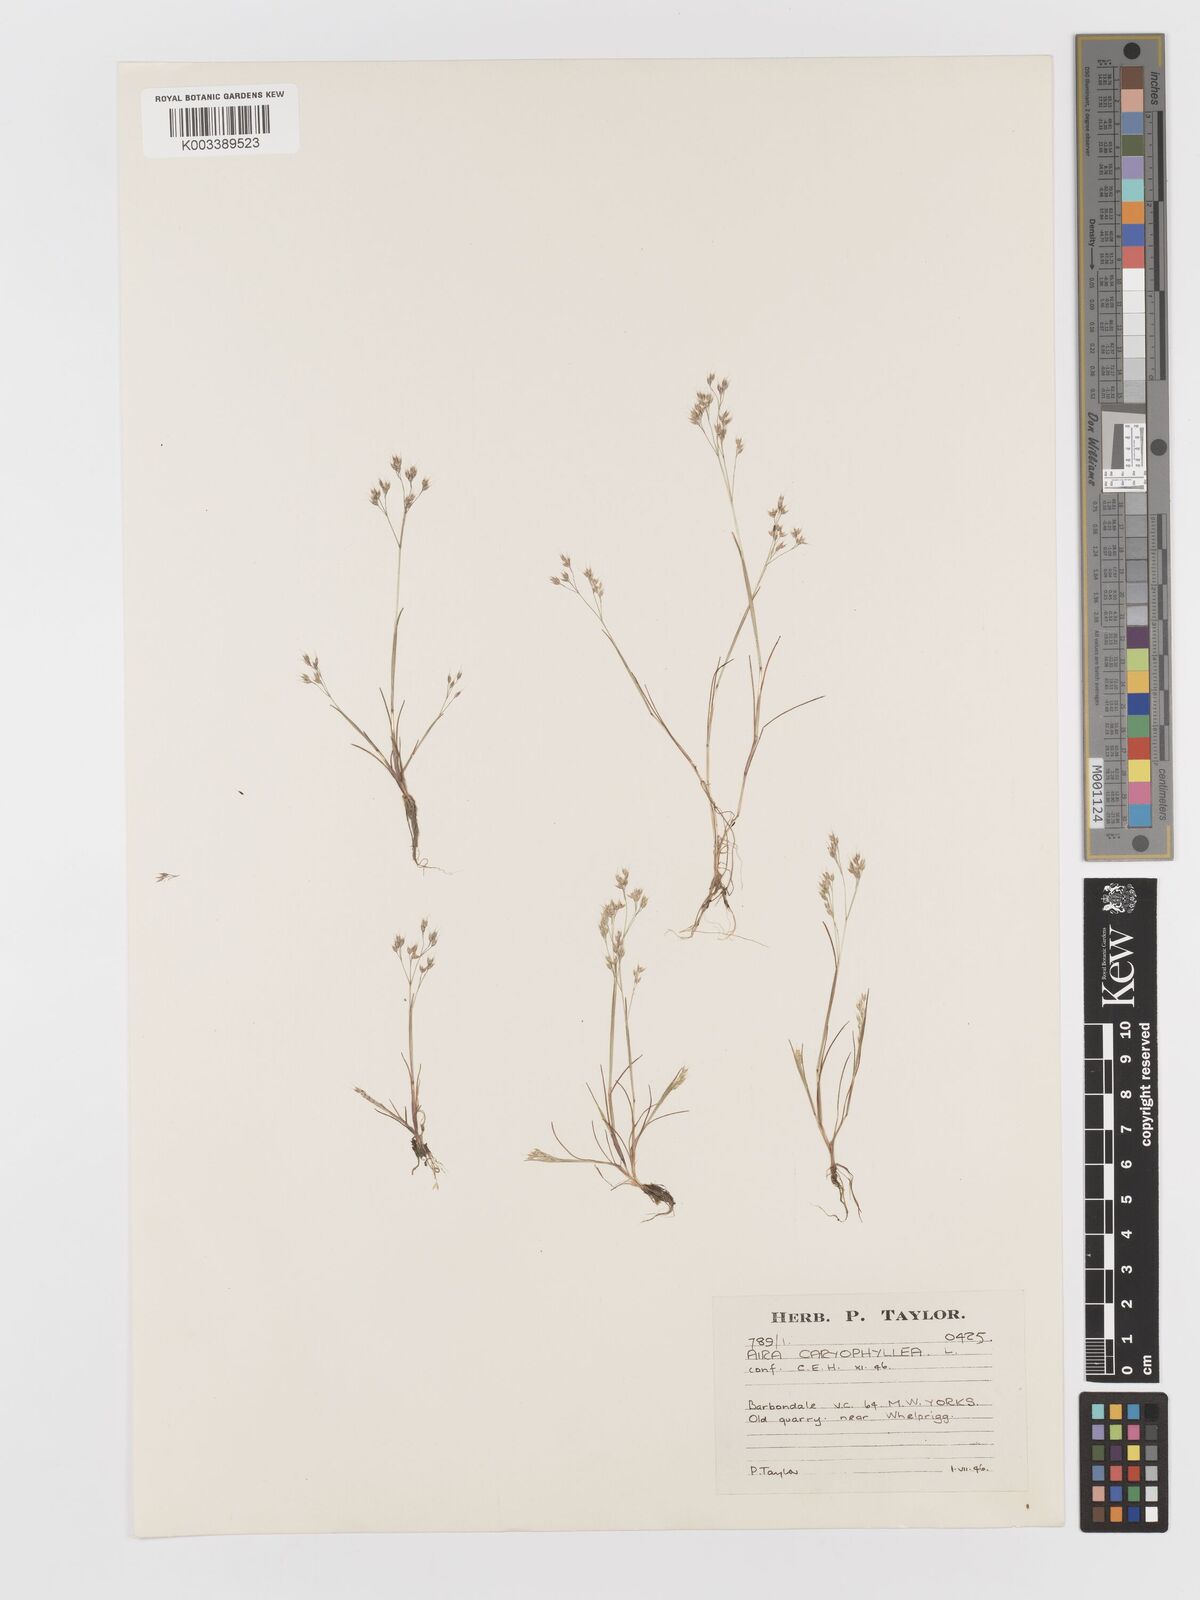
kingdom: Plantae
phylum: Tracheophyta
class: Liliopsida
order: Poales
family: Poaceae
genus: Aira
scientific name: Aira caryophyllea
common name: Silver hairgrass
